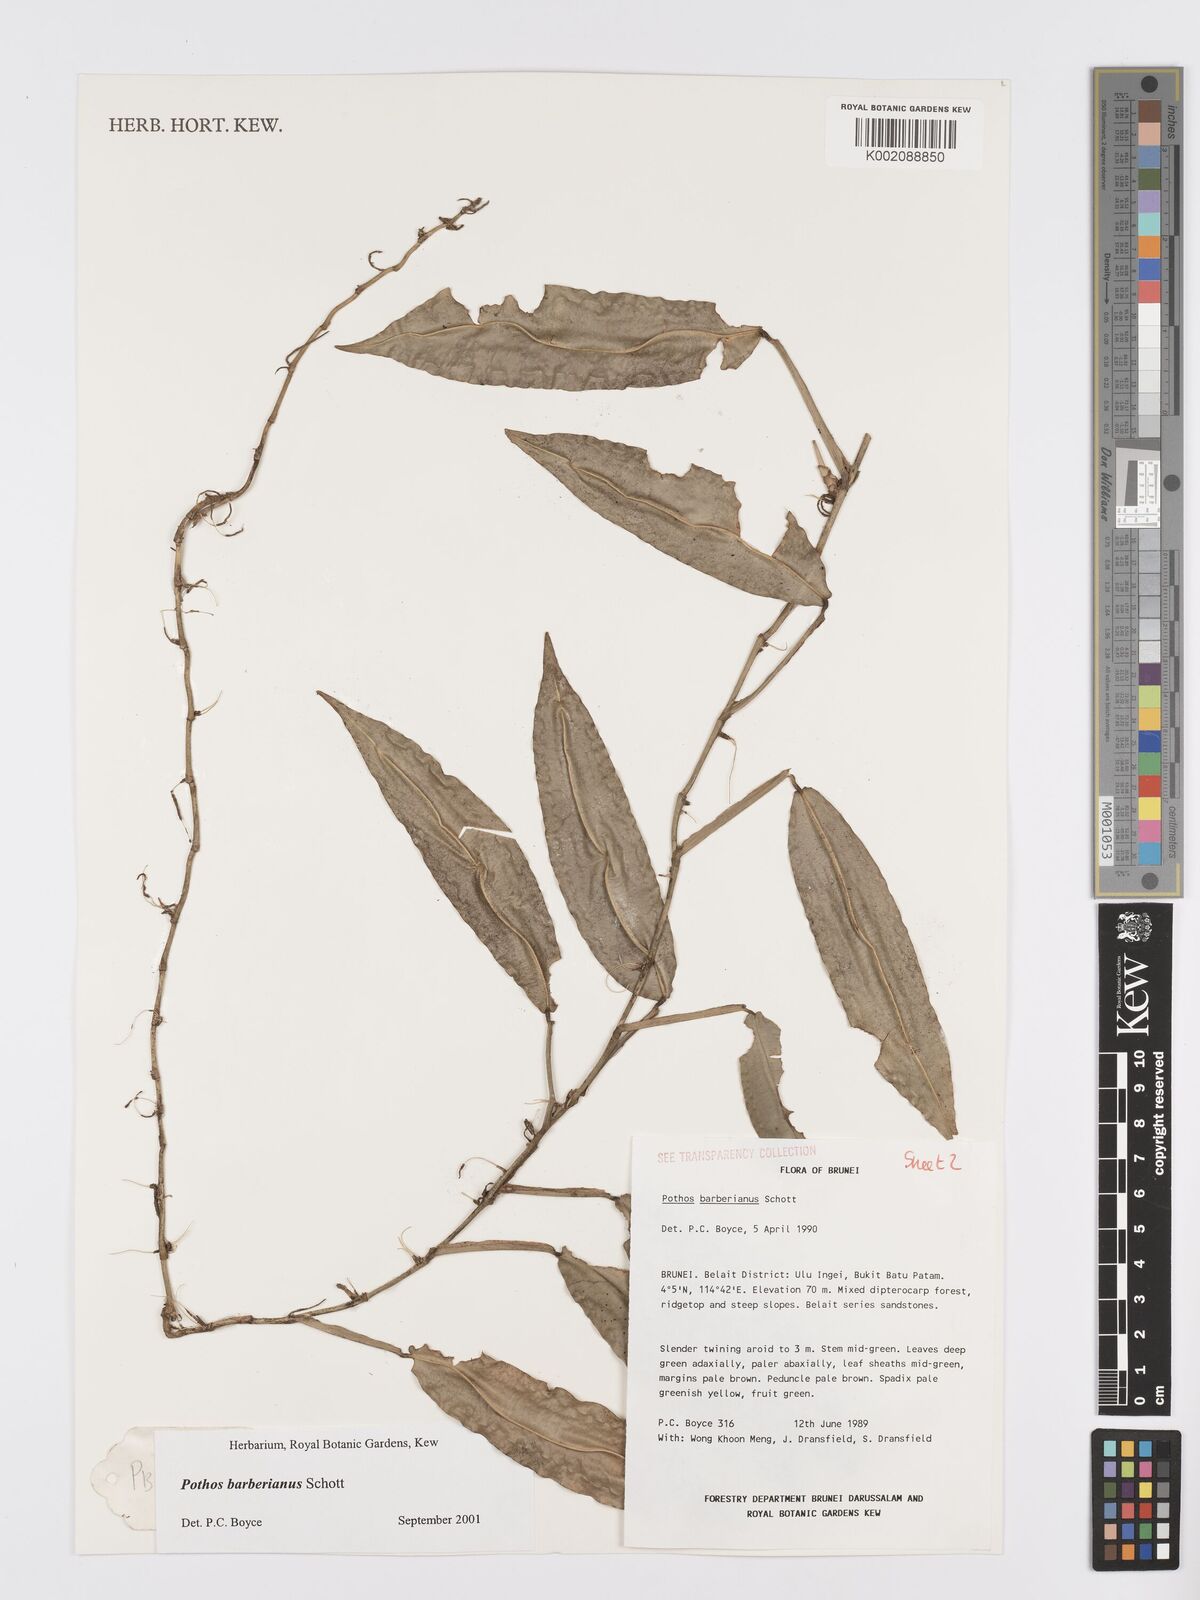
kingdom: Plantae
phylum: Tracheophyta
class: Liliopsida
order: Alismatales
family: Araceae
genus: Pothos
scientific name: Pothos barberianus
